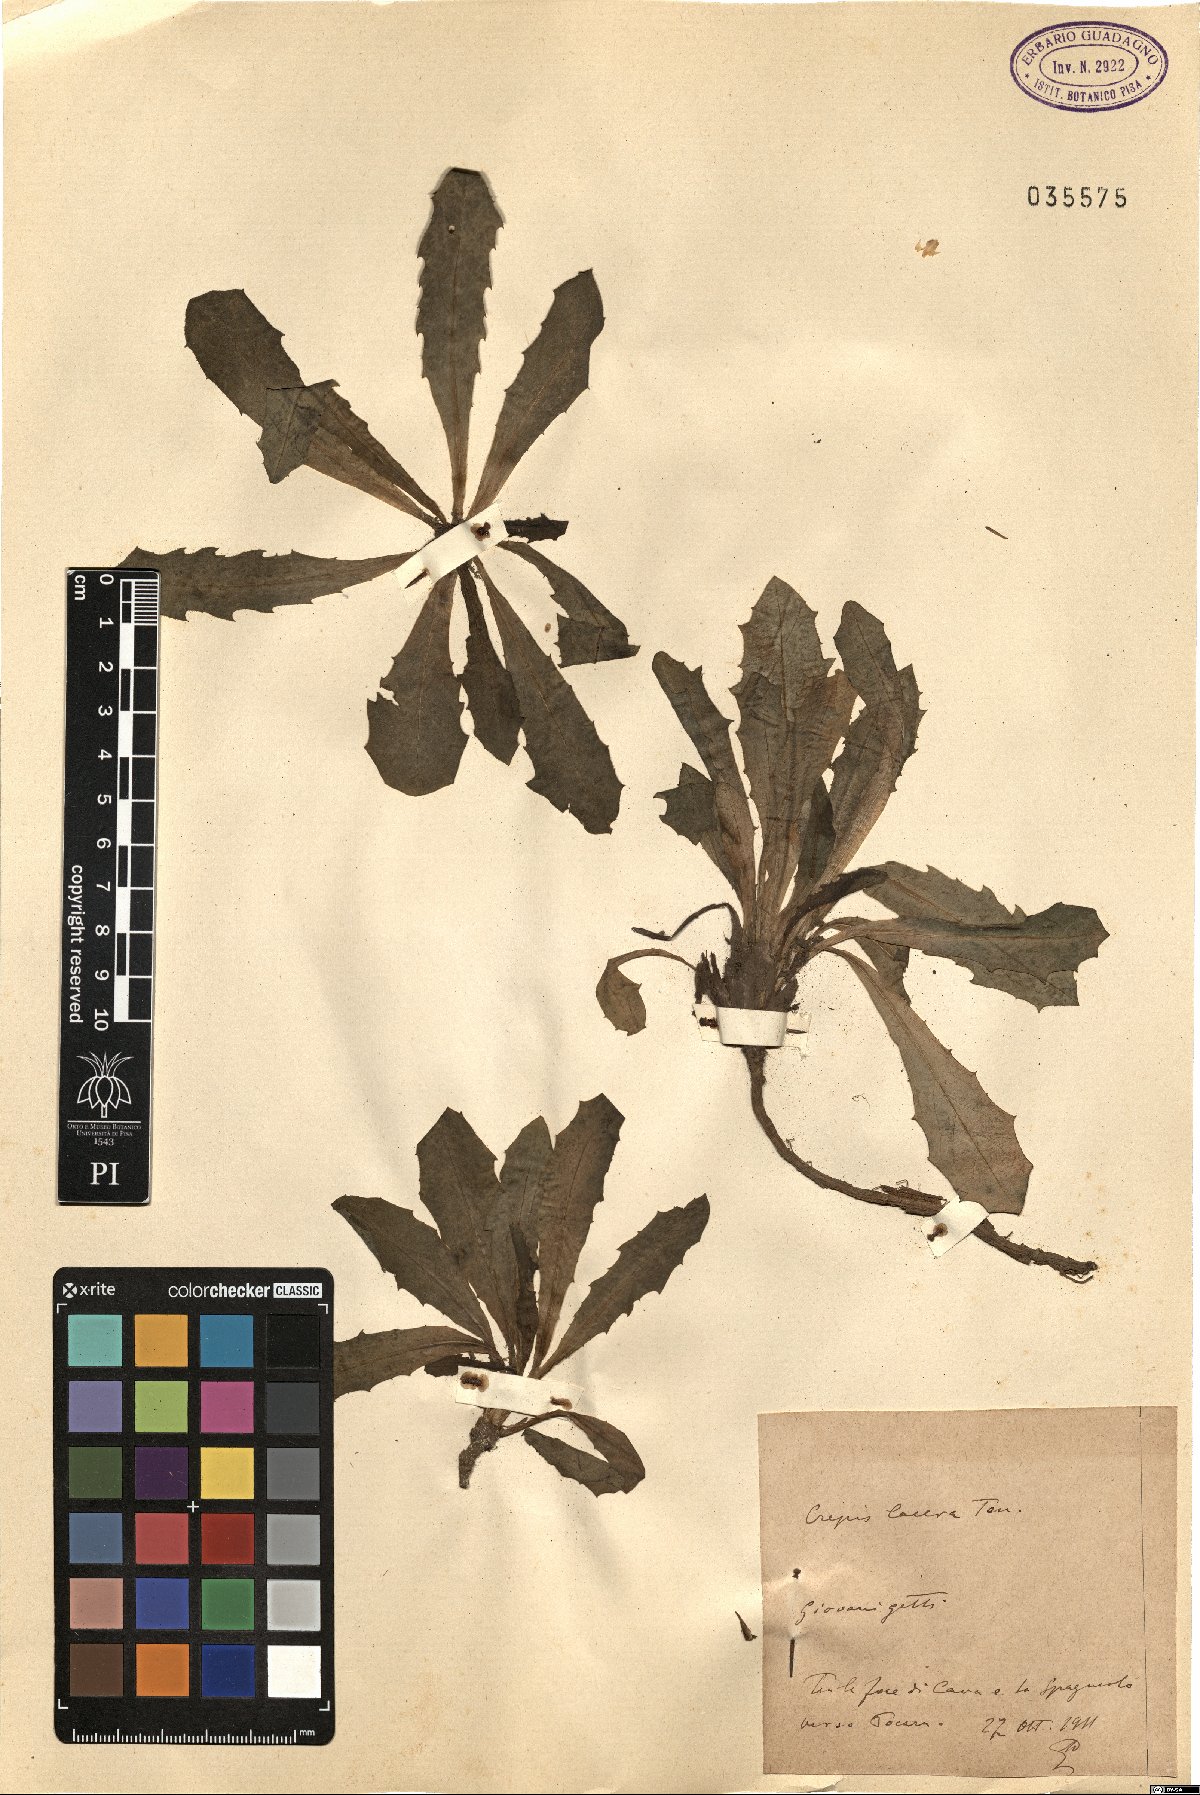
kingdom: Plantae
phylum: Tracheophyta
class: Magnoliopsida
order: Asterales
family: Asteraceae
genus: Crepis
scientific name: Crepis lacera
